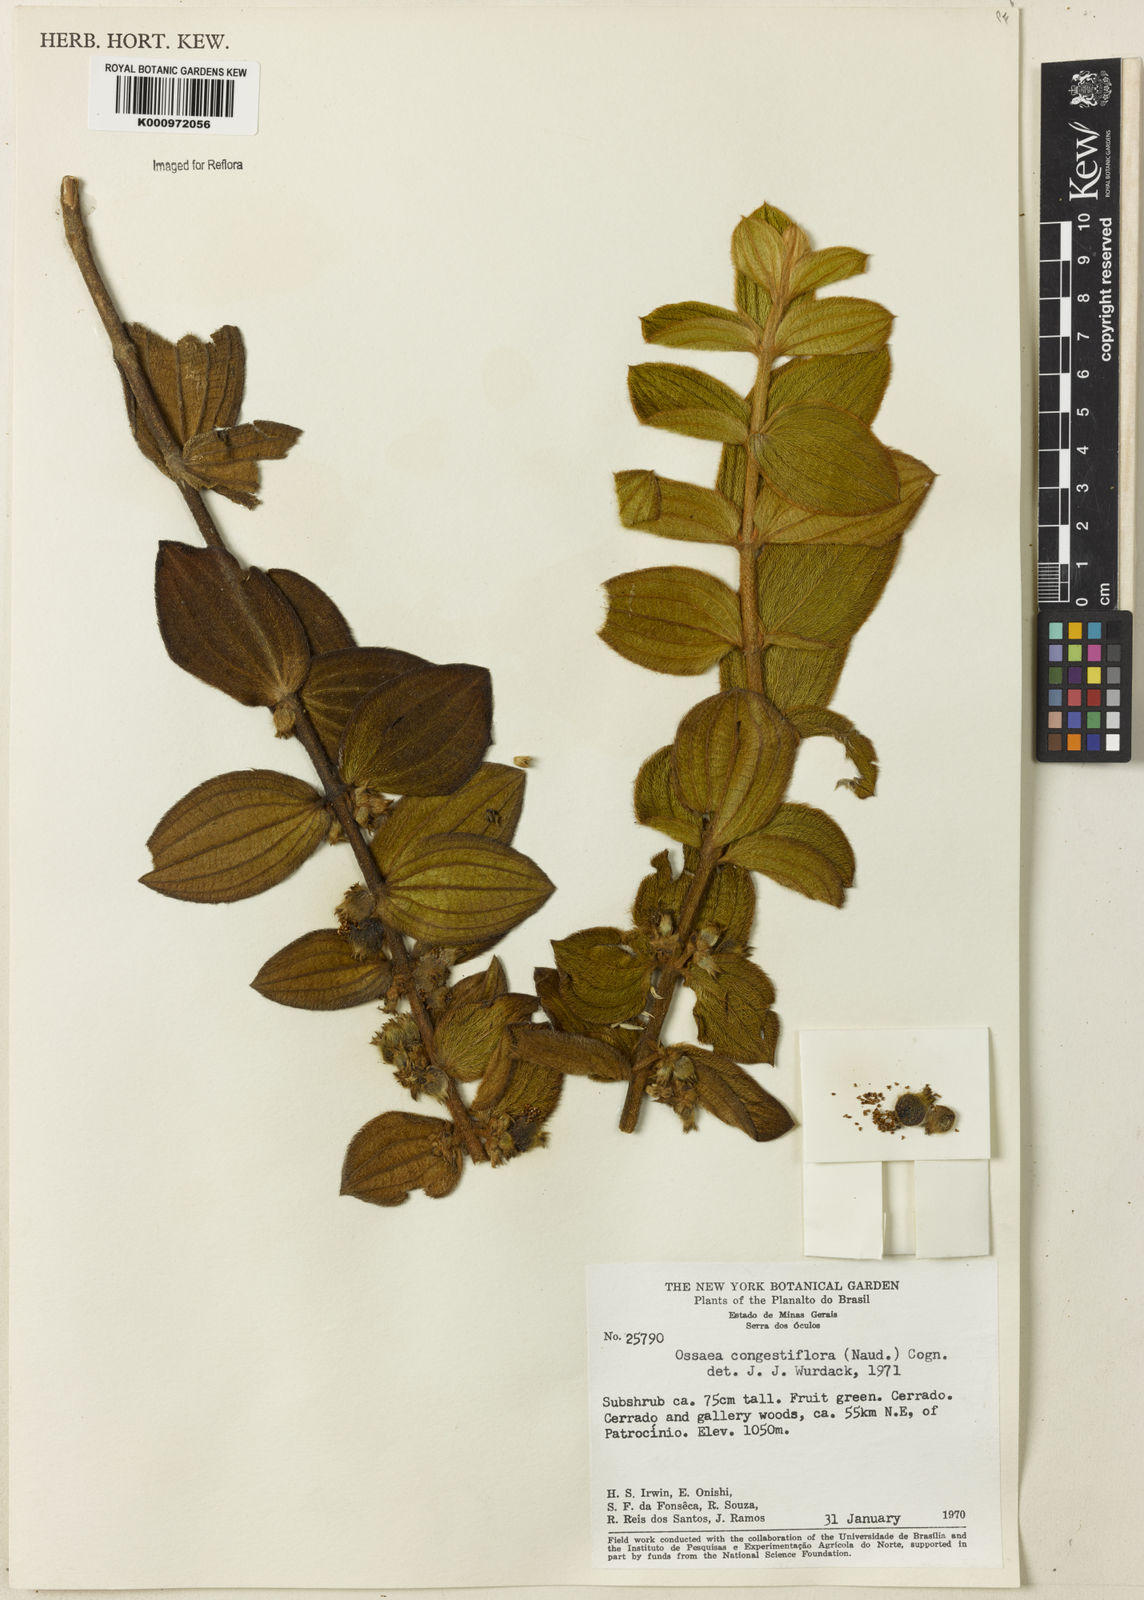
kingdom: Plantae
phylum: Tracheophyta
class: Magnoliopsida
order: Myrtales
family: Melastomataceae
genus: Miconia
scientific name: Miconia leacongestiflora
